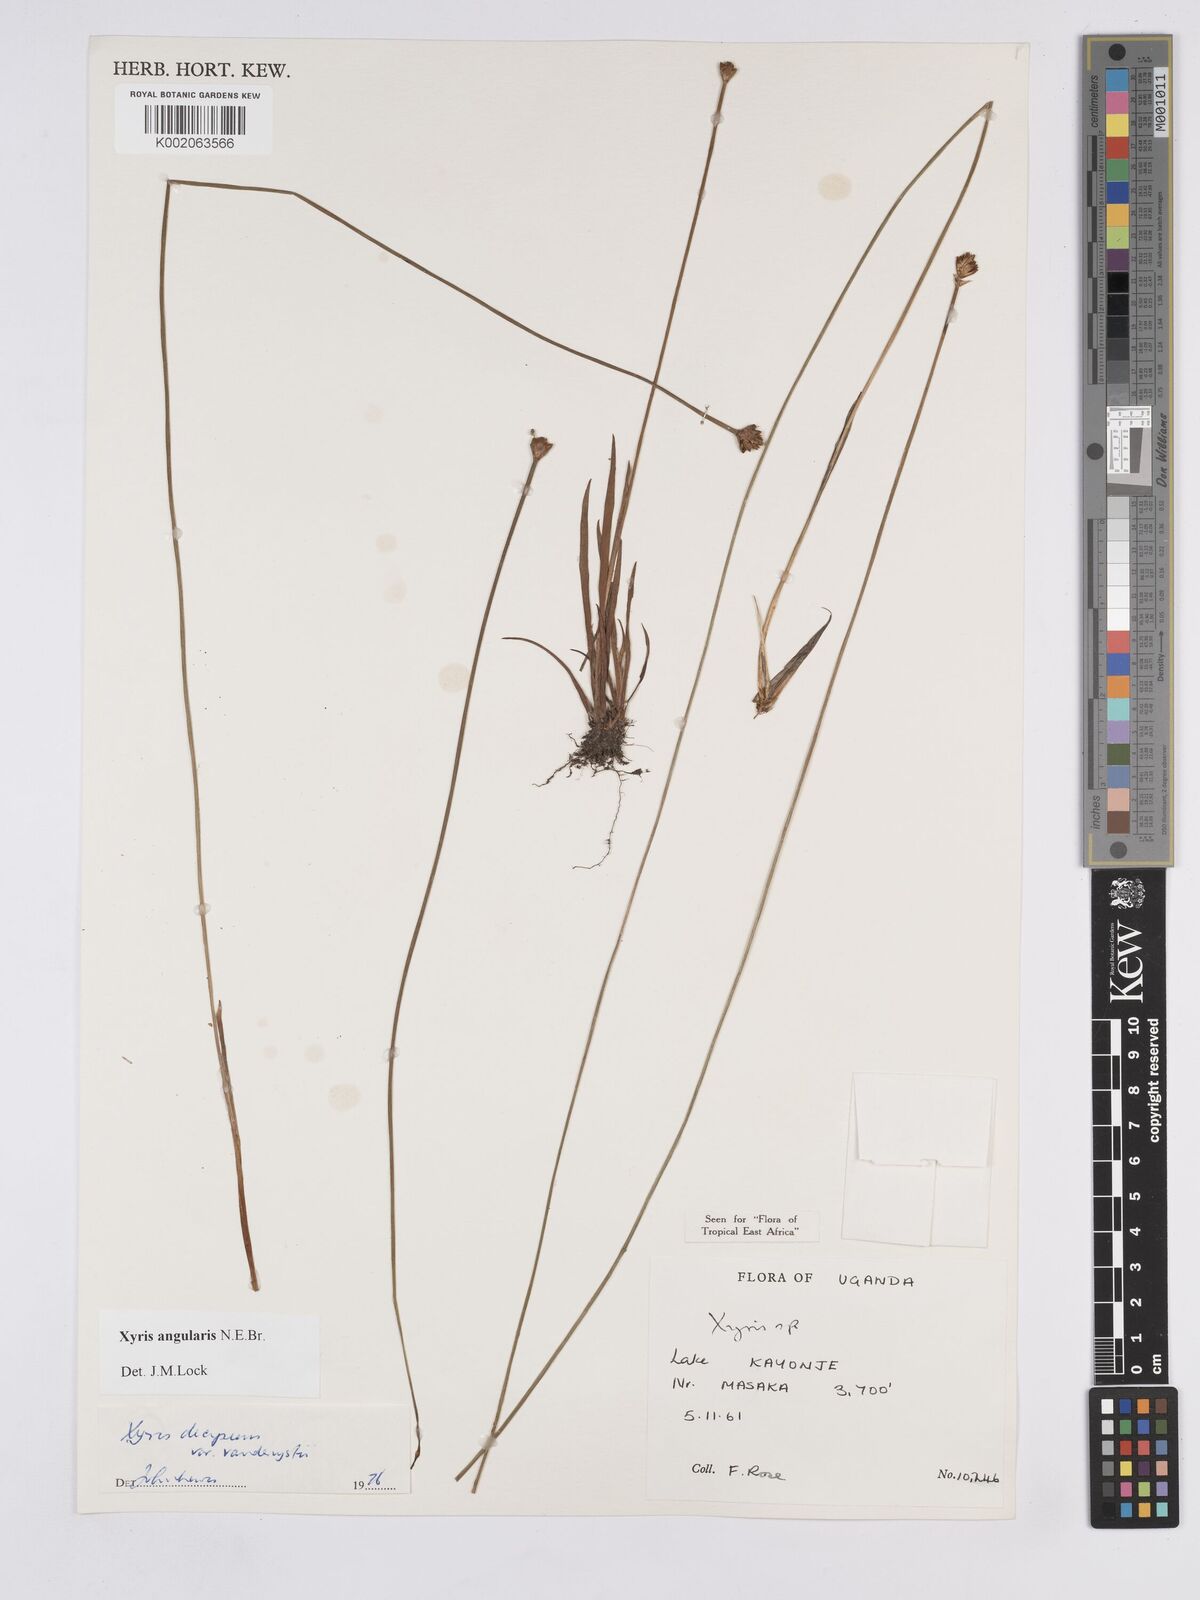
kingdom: Plantae
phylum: Tracheophyta
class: Liliopsida
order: Poales
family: Xyridaceae
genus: Xyris
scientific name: Xyris angularis
